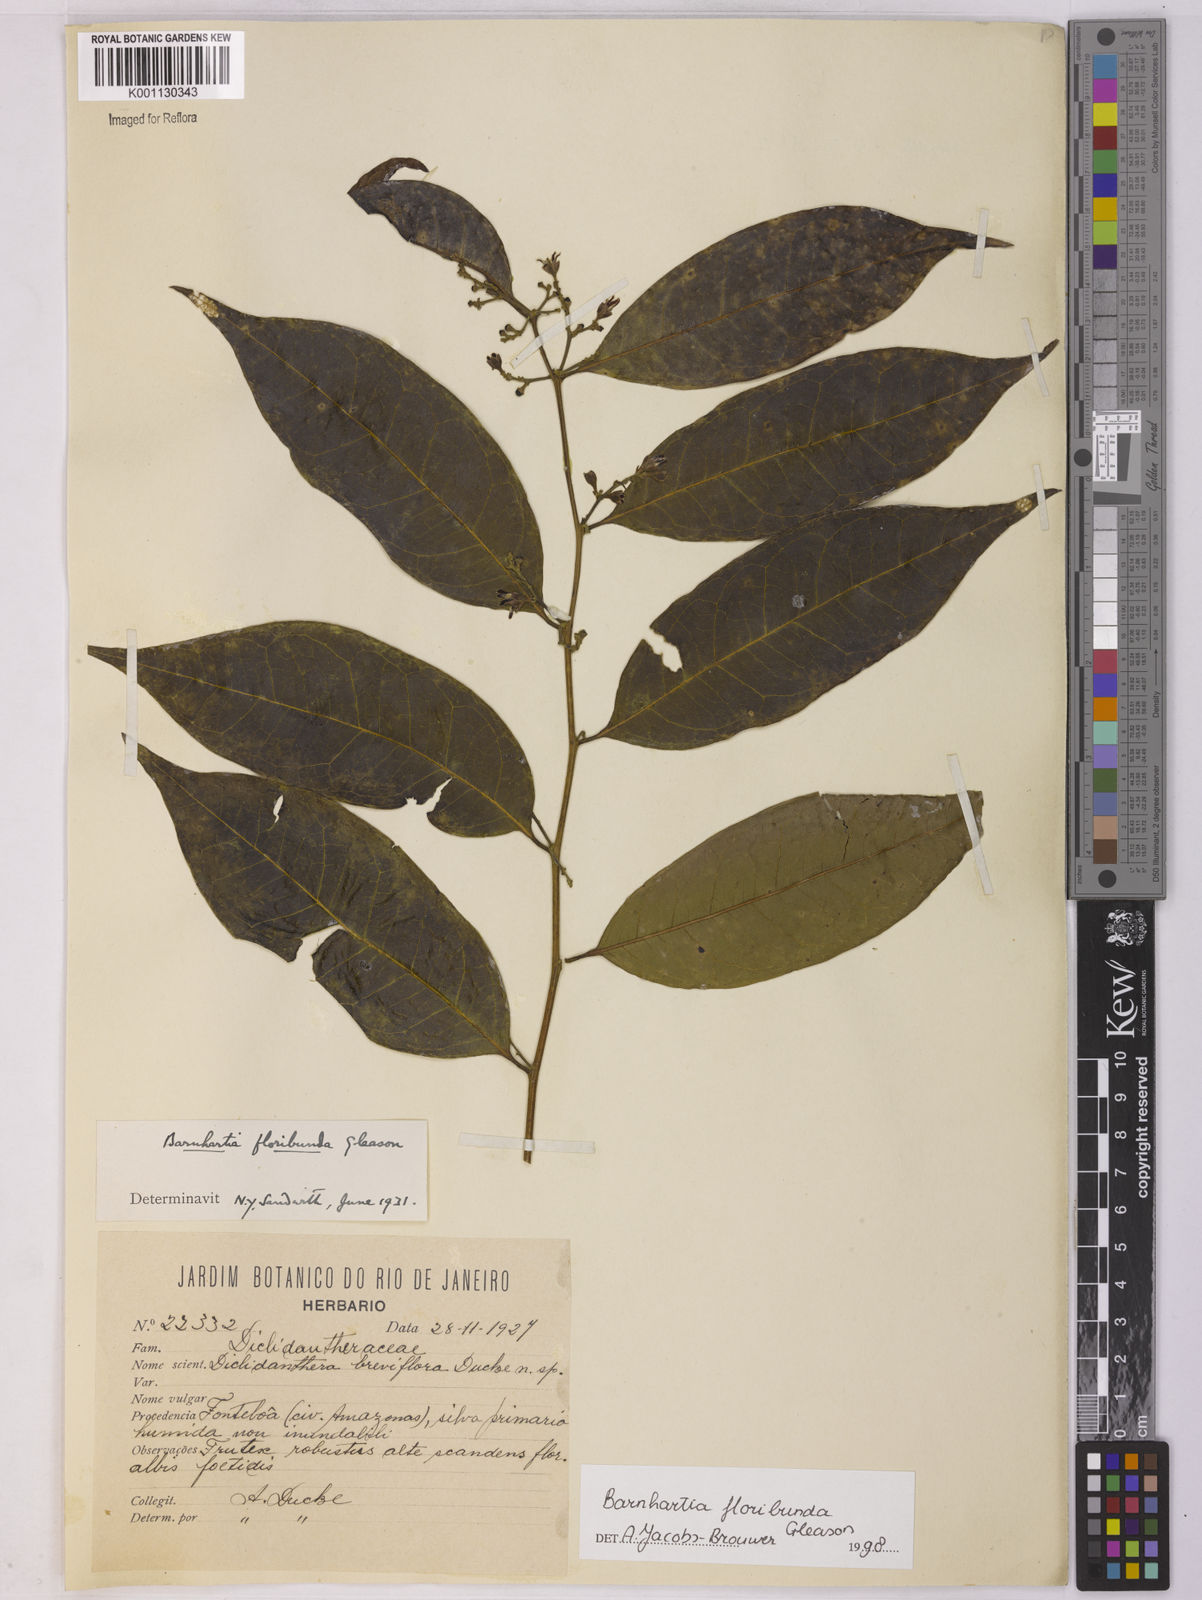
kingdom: Plantae
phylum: Tracheophyta
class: Magnoliopsida
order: Fabales
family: Polygalaceae
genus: Barnhartia
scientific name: Barnhartia floribunda
